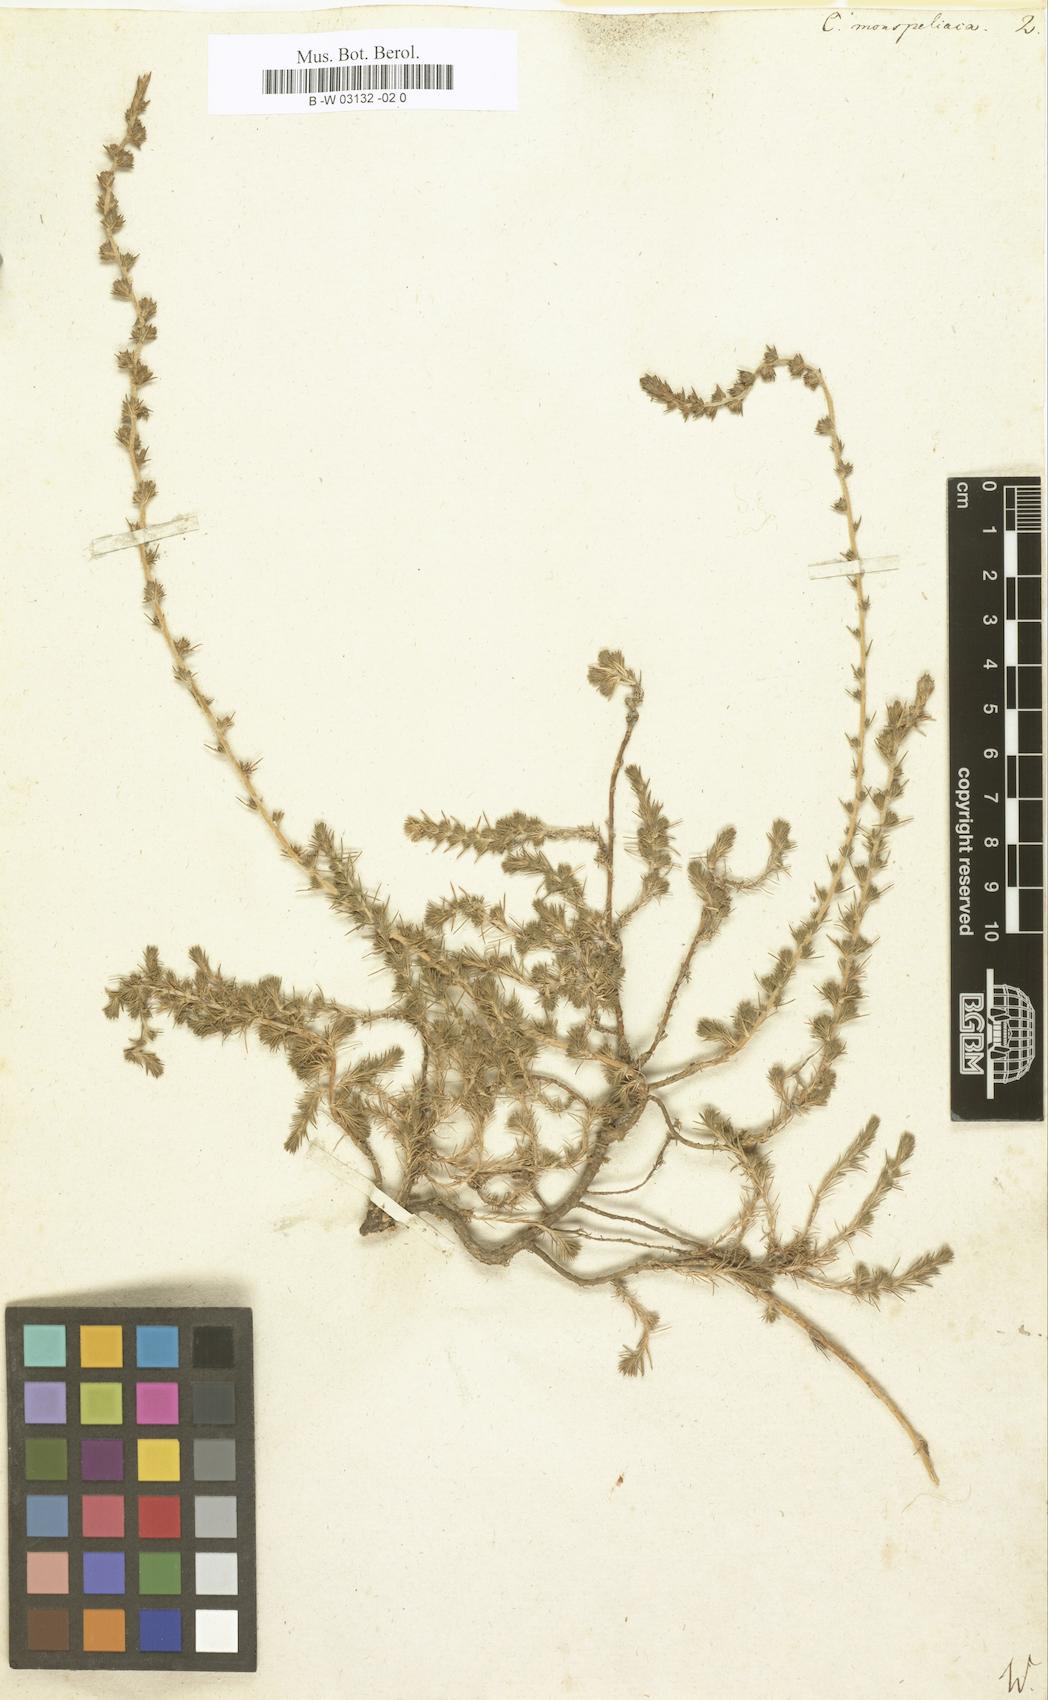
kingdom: Plantae
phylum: Tracheophyta
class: Magnoliopsida
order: Caryophyllales
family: Amaranthaceae
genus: Camphorosma
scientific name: Camphorosma monspeliaca
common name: Camphorfume
